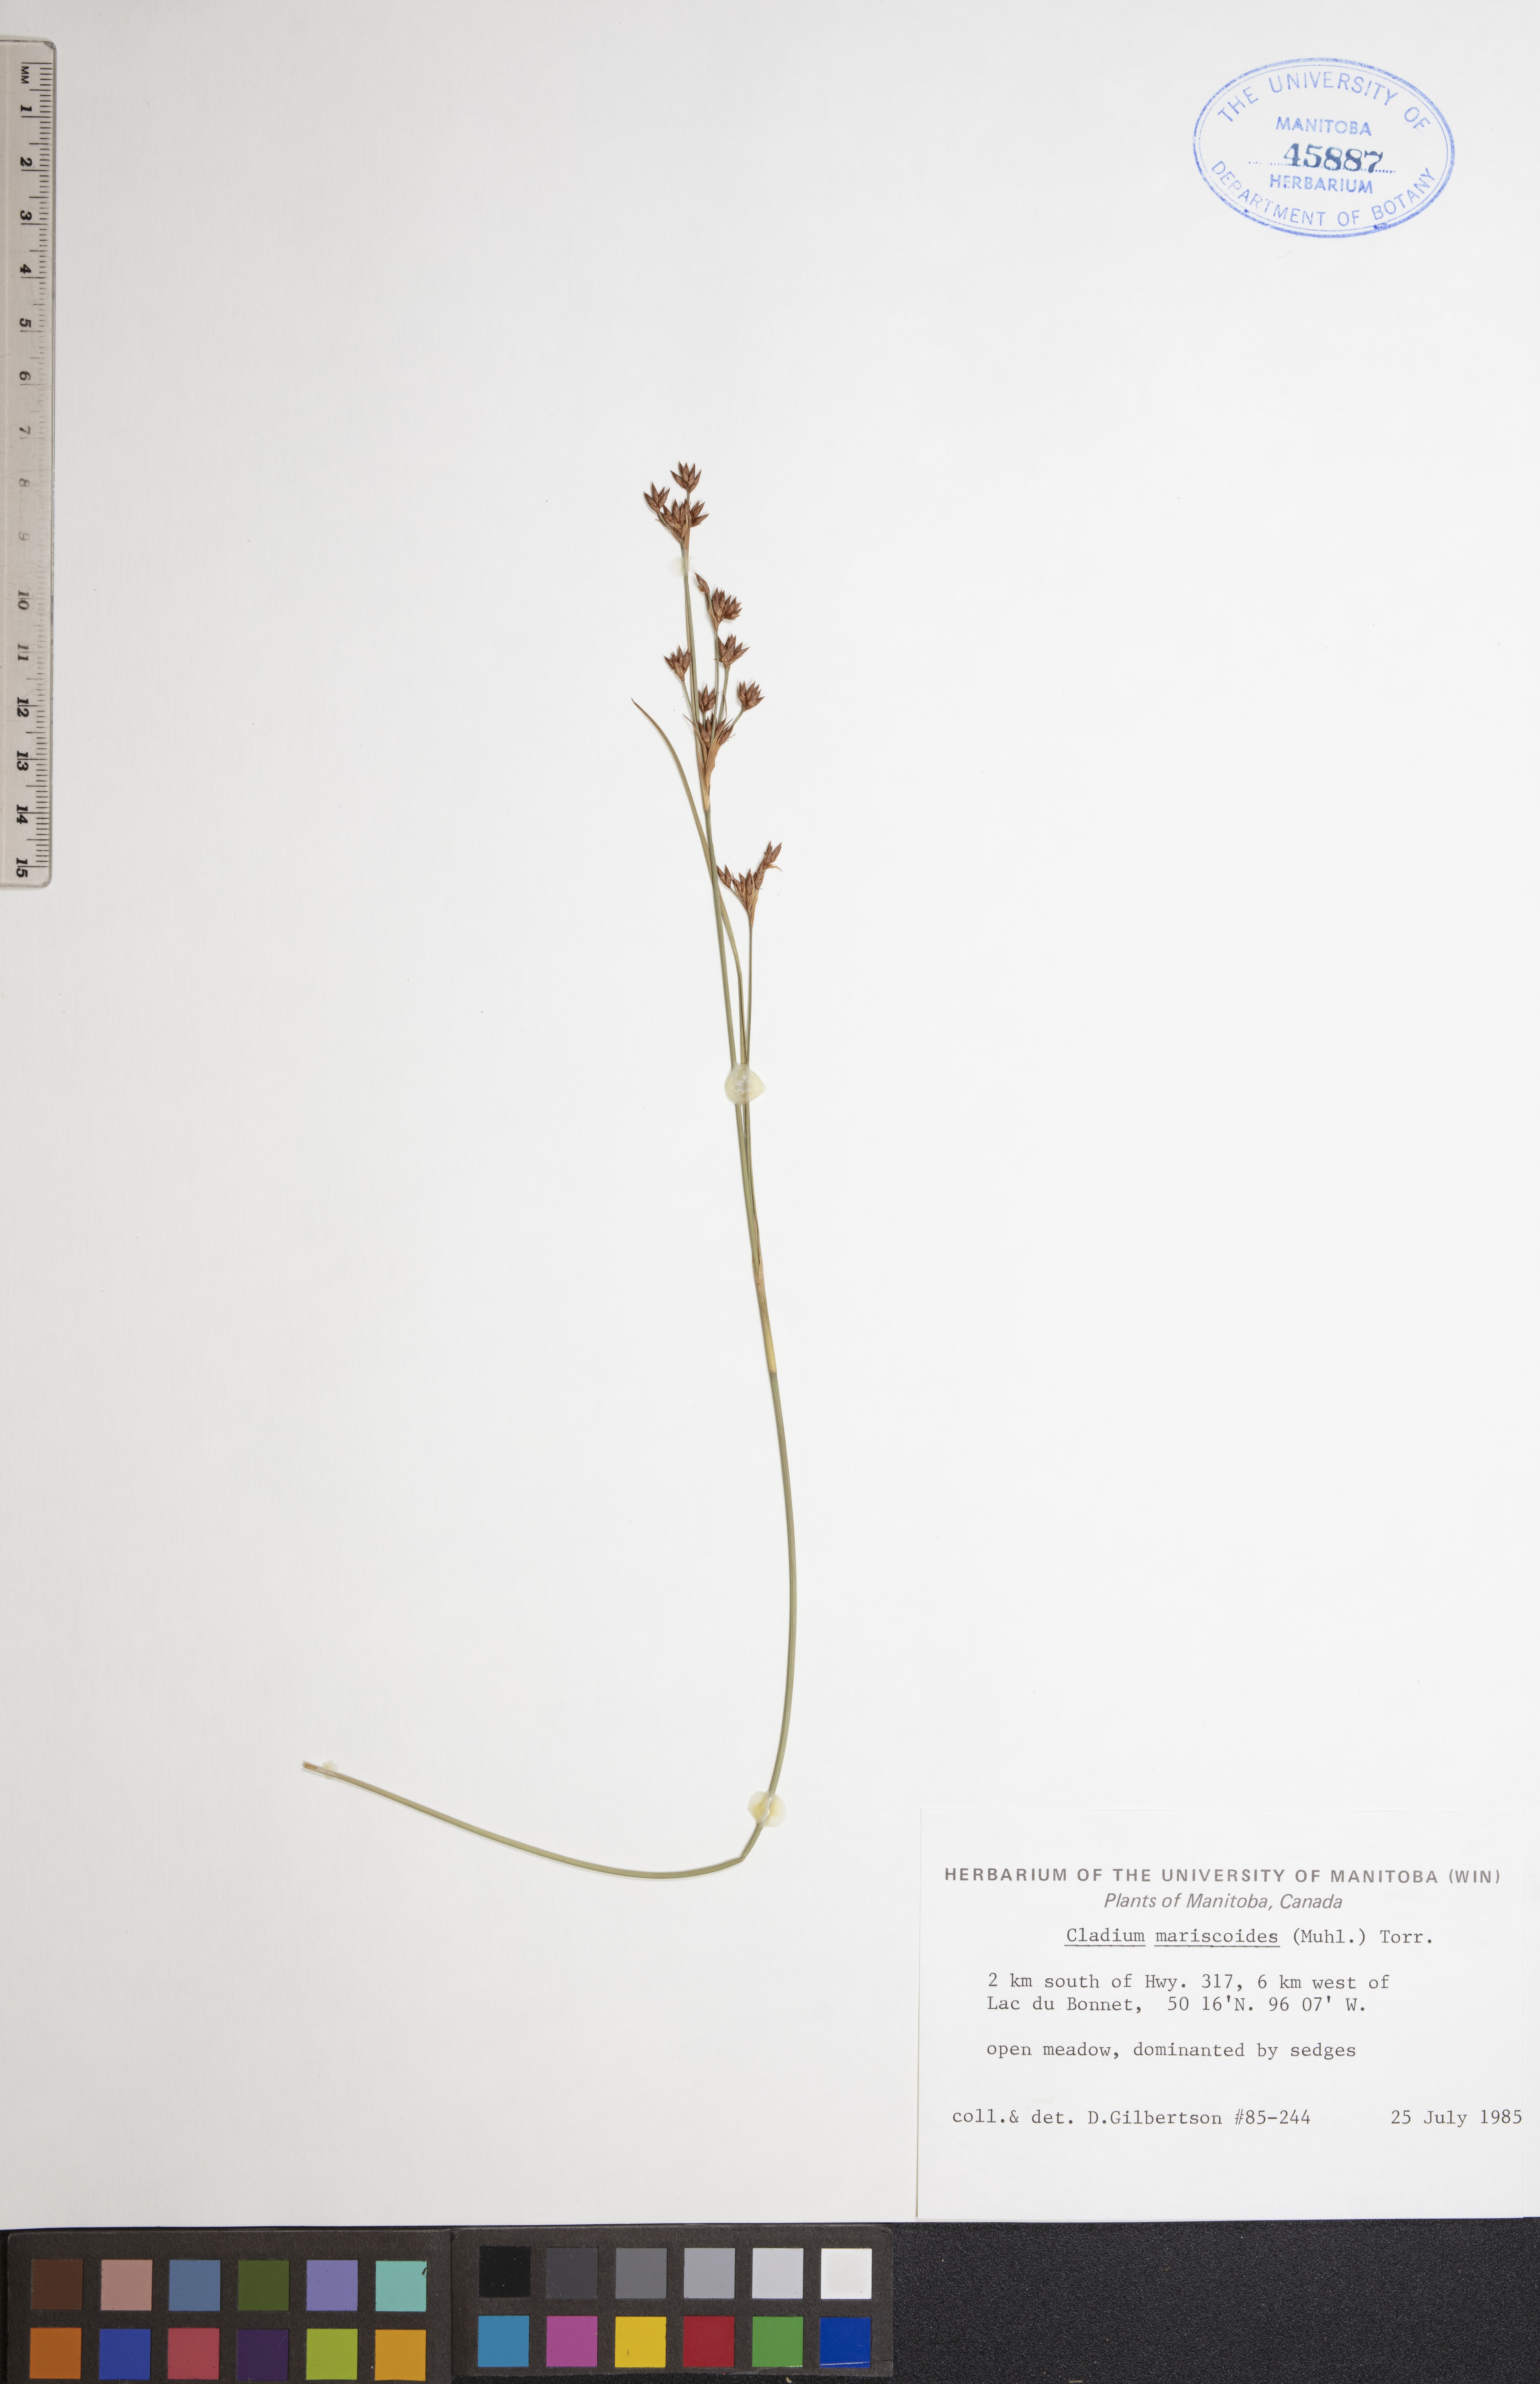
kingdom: Plantae
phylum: Tracheophyta
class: Liliopsida
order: Poales
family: Cyperaceae
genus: Cladium
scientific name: Cladium mariscoides
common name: Smooth sawgrass
